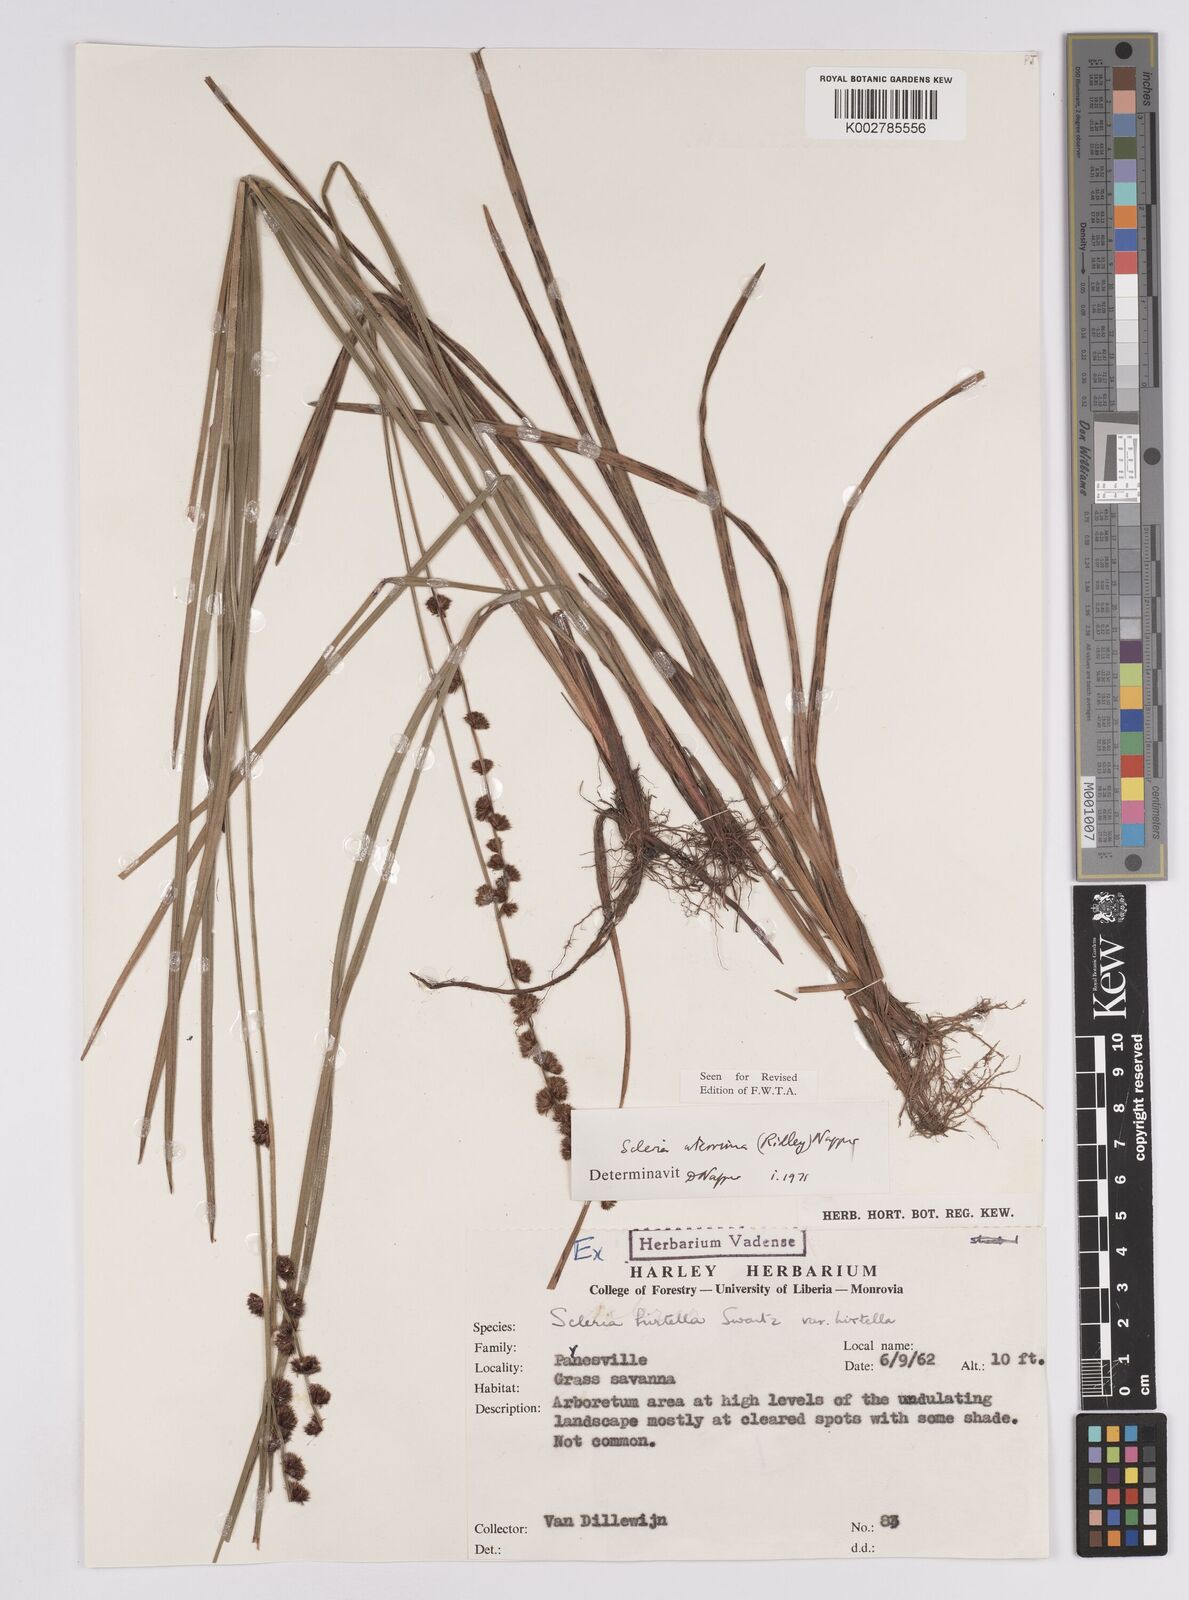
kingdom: Plantae
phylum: Tracheophyta
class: Liliopsida
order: Poales
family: Cyperaceae
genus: Scleria
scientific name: Scleria catophylla
